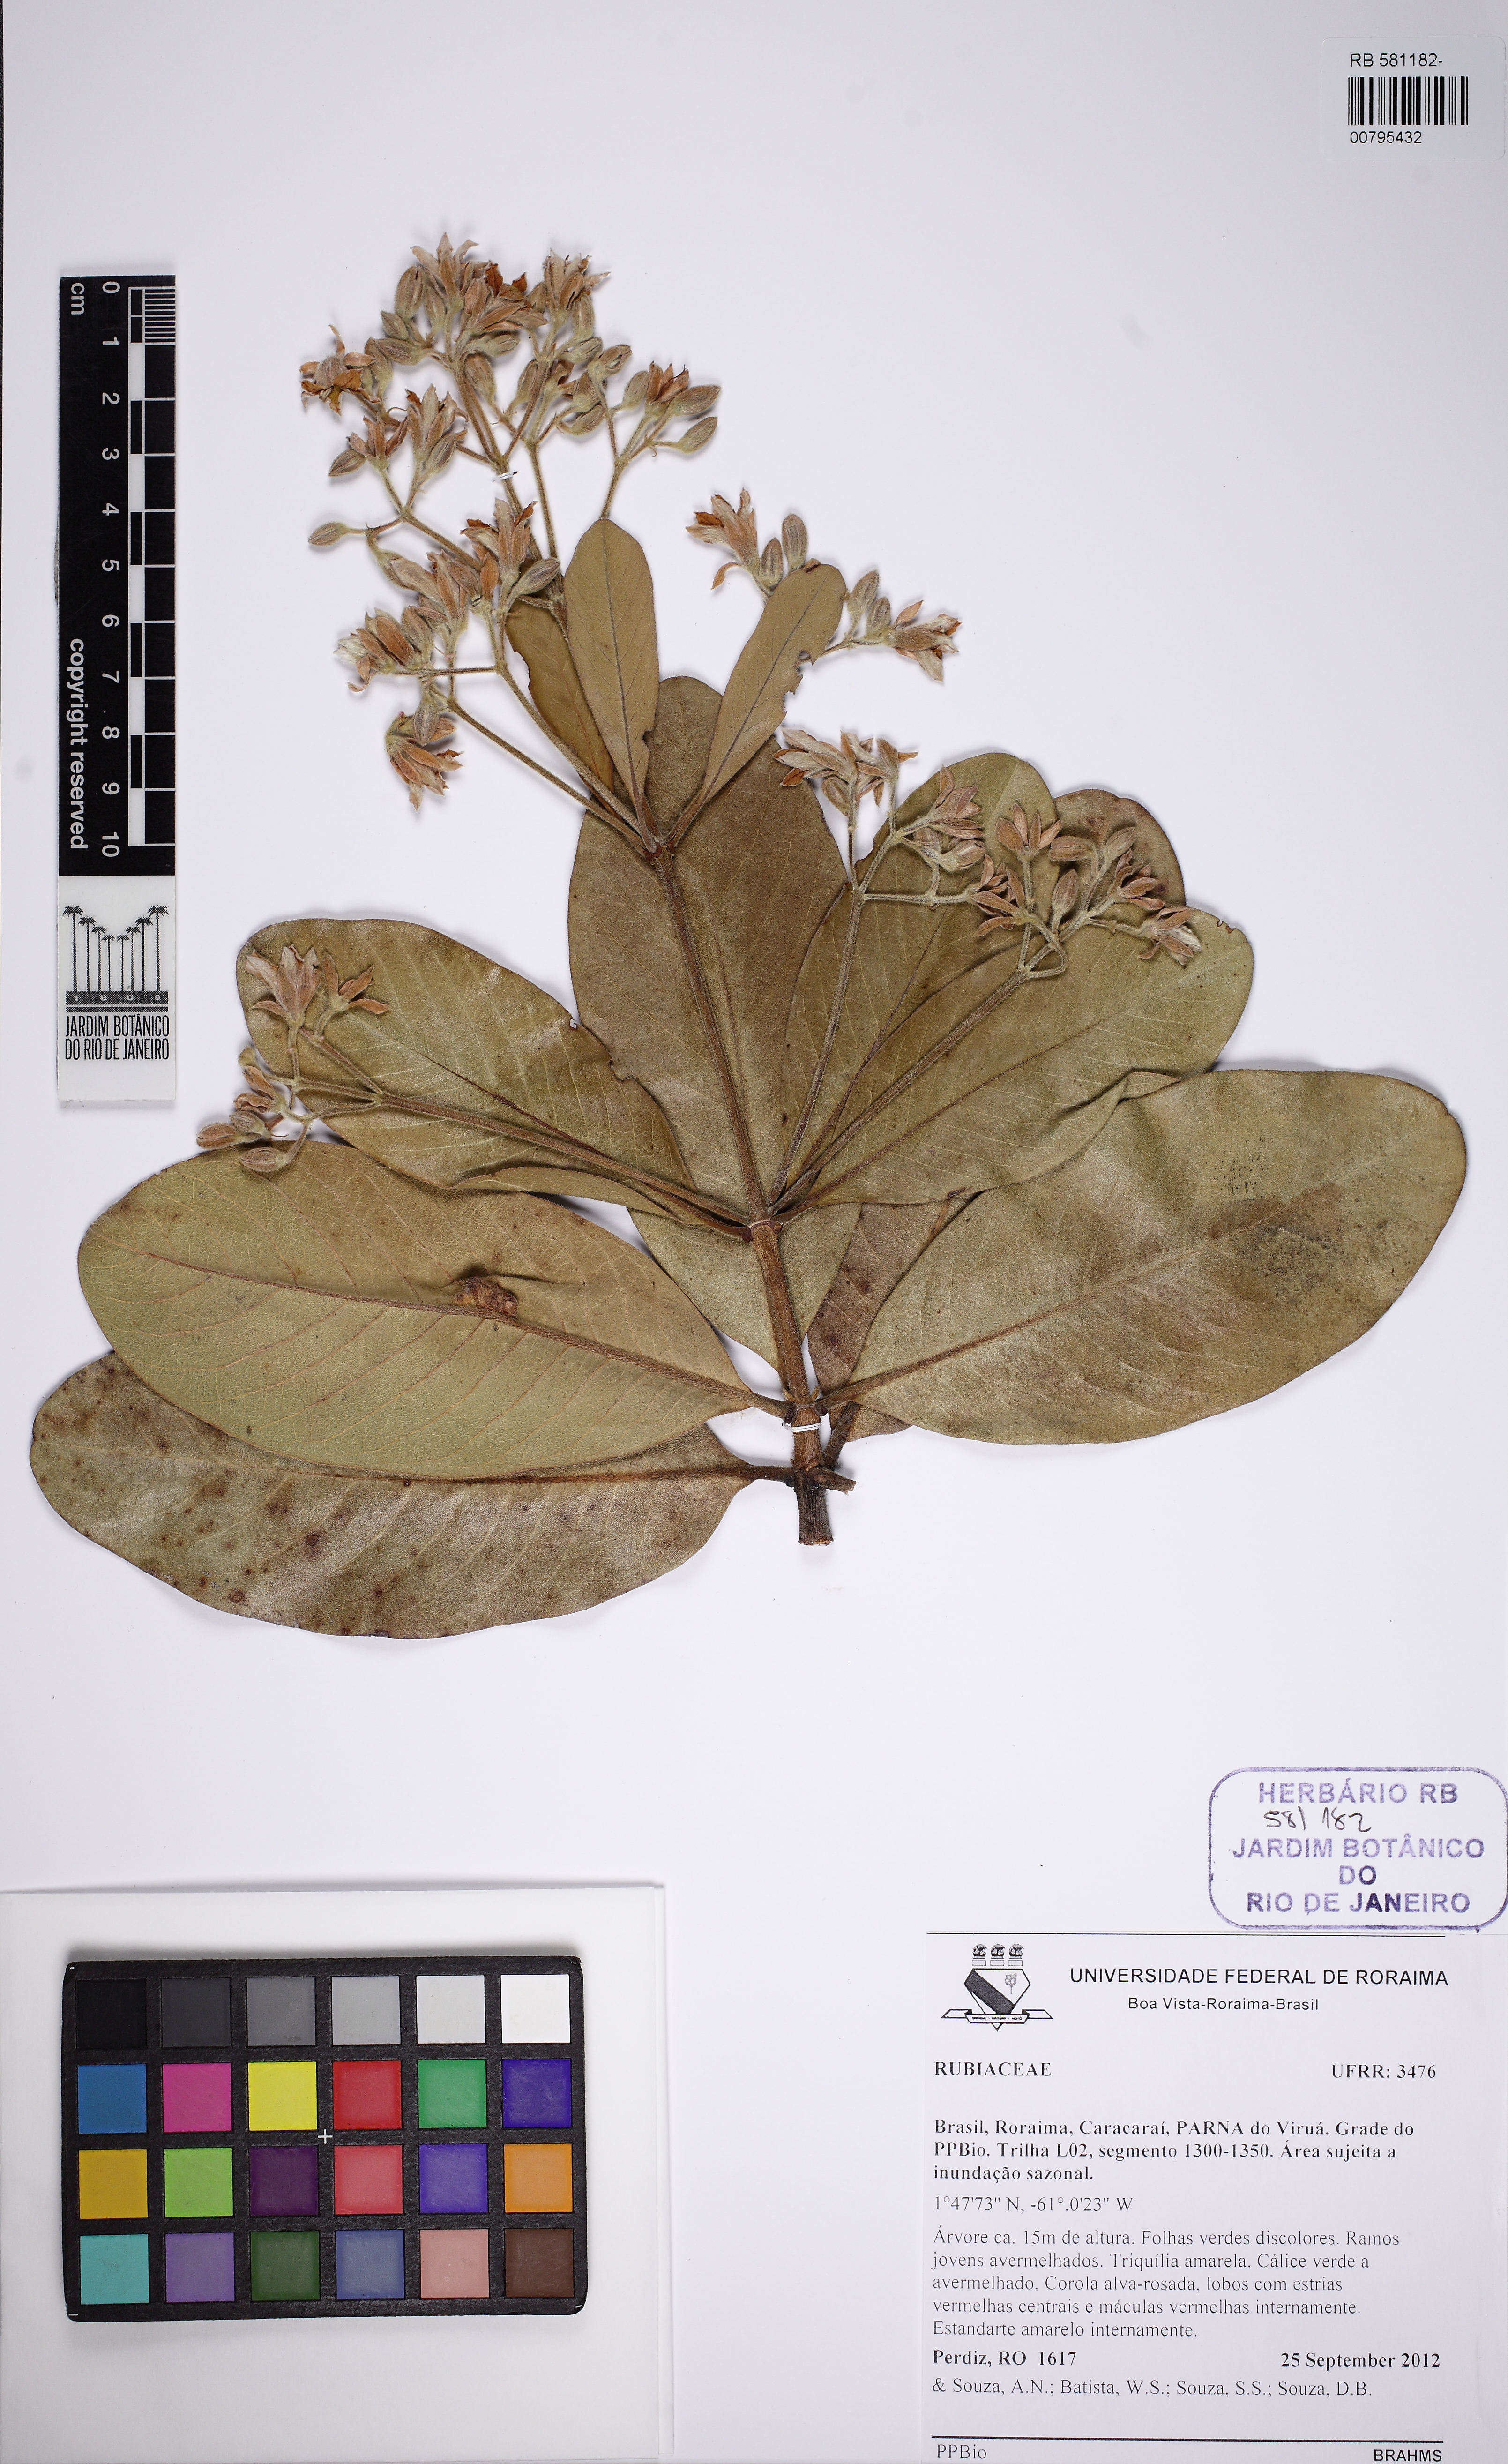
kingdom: Plantae
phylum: Tracheophyta
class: Magnoliopsida
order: Gentianales
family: Rubiaceae
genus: Henriquezia
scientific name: Henriquezia
